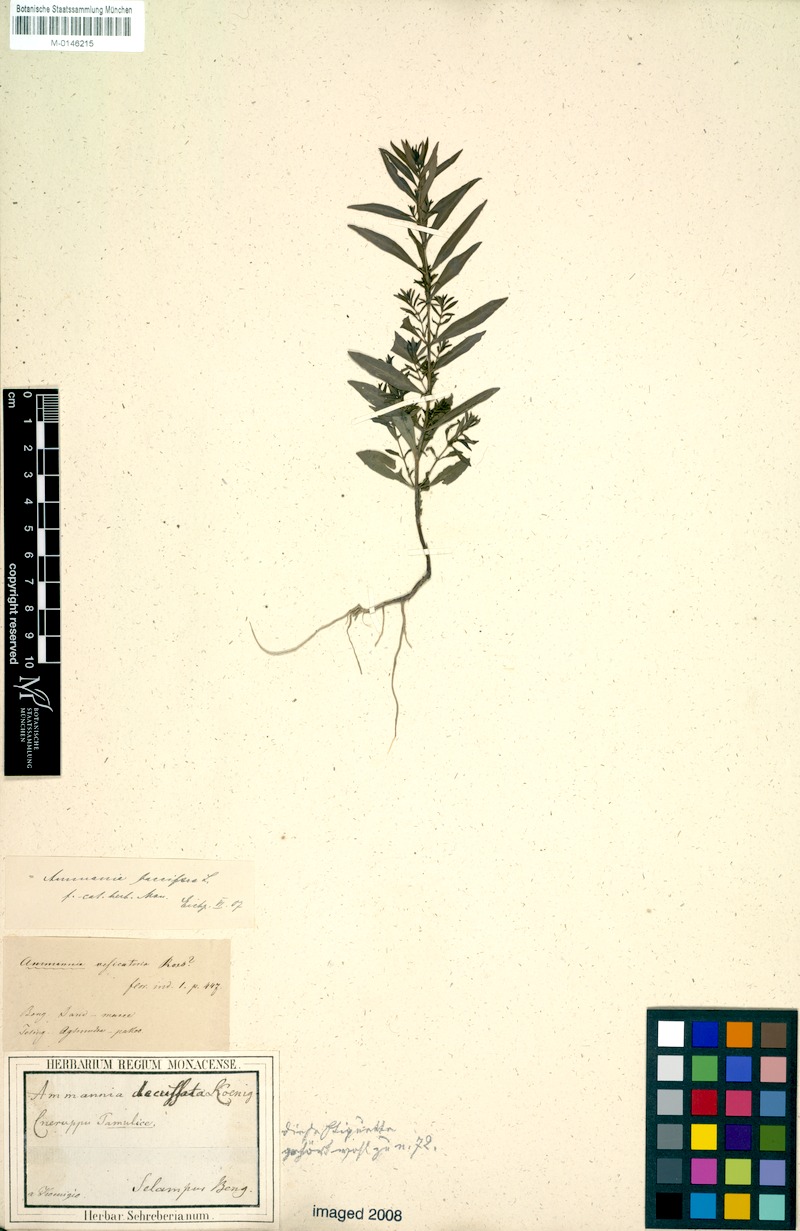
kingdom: Plantae
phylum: Tracheophyta
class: Magnoliopsida
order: Myrtales
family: Lythraceae
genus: Ammannia
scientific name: Ammannia baccifera
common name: Blistering ammania
